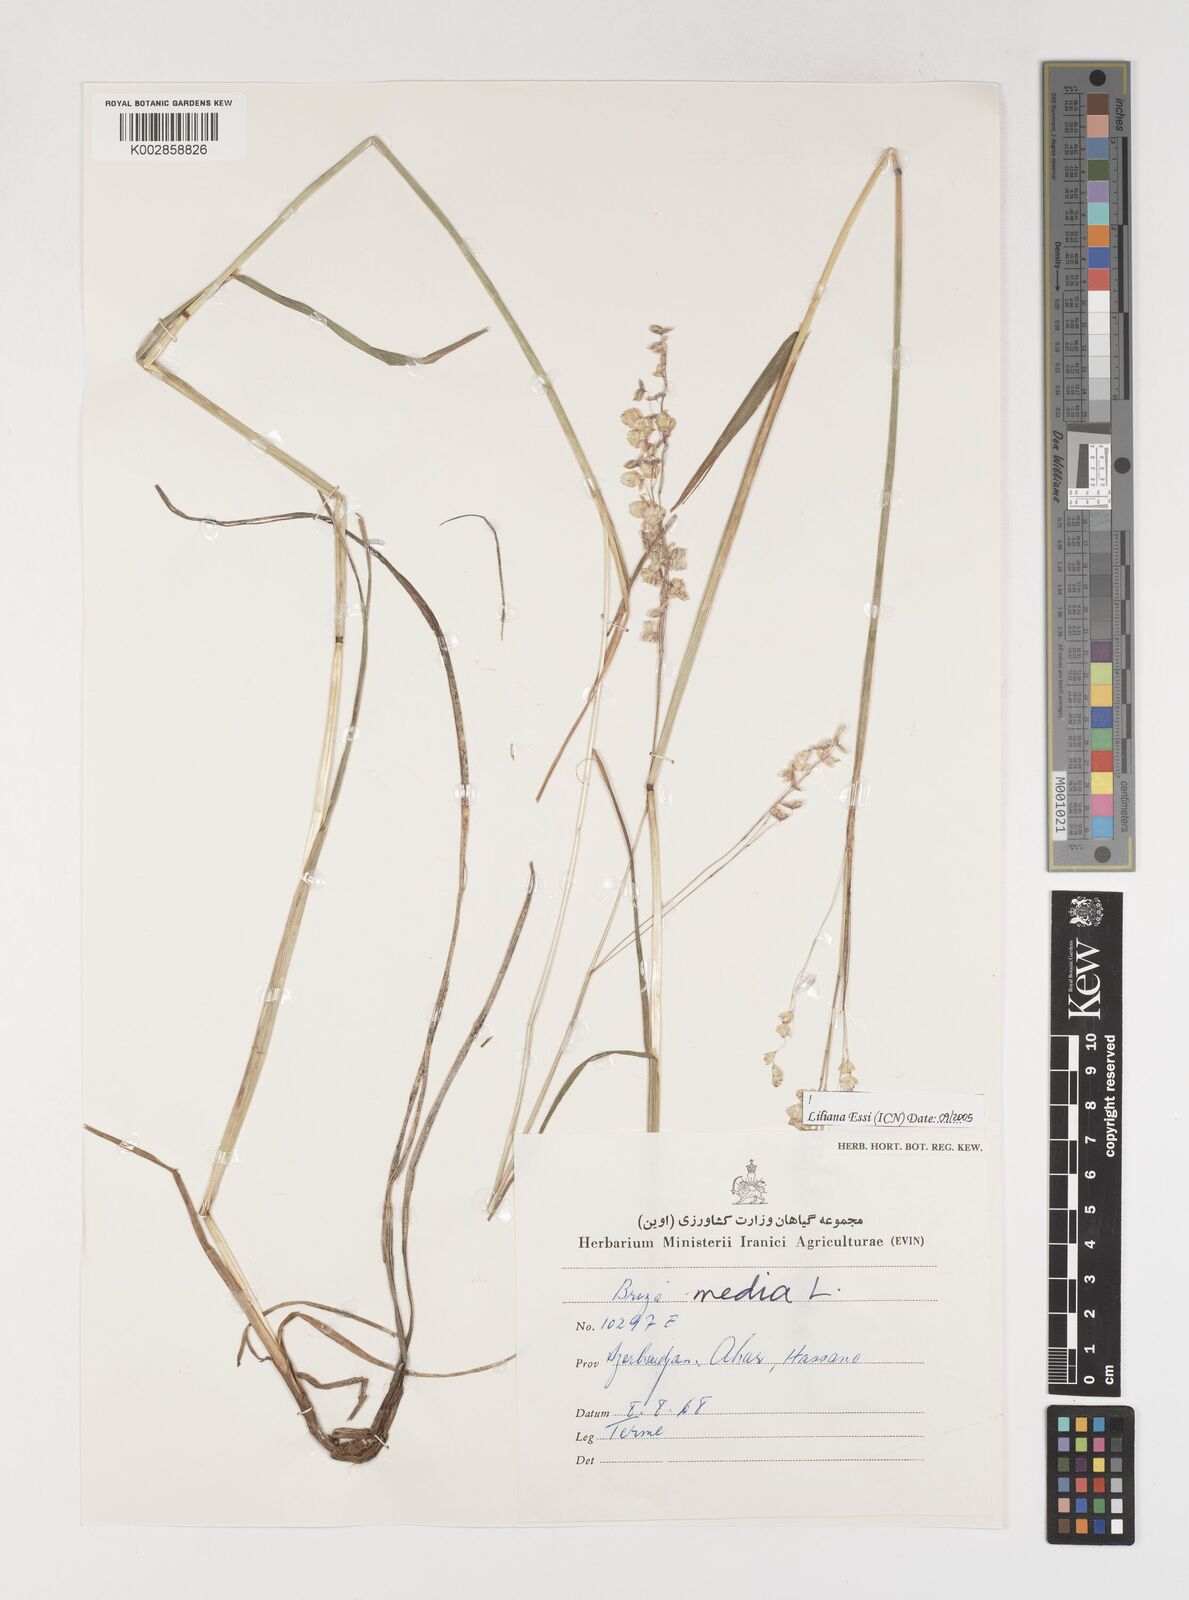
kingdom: Plantae
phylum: Tracheophyta
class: Liliopsida
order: Poales
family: Poaceae
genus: Briza
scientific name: Briza media
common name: Quaking grass
